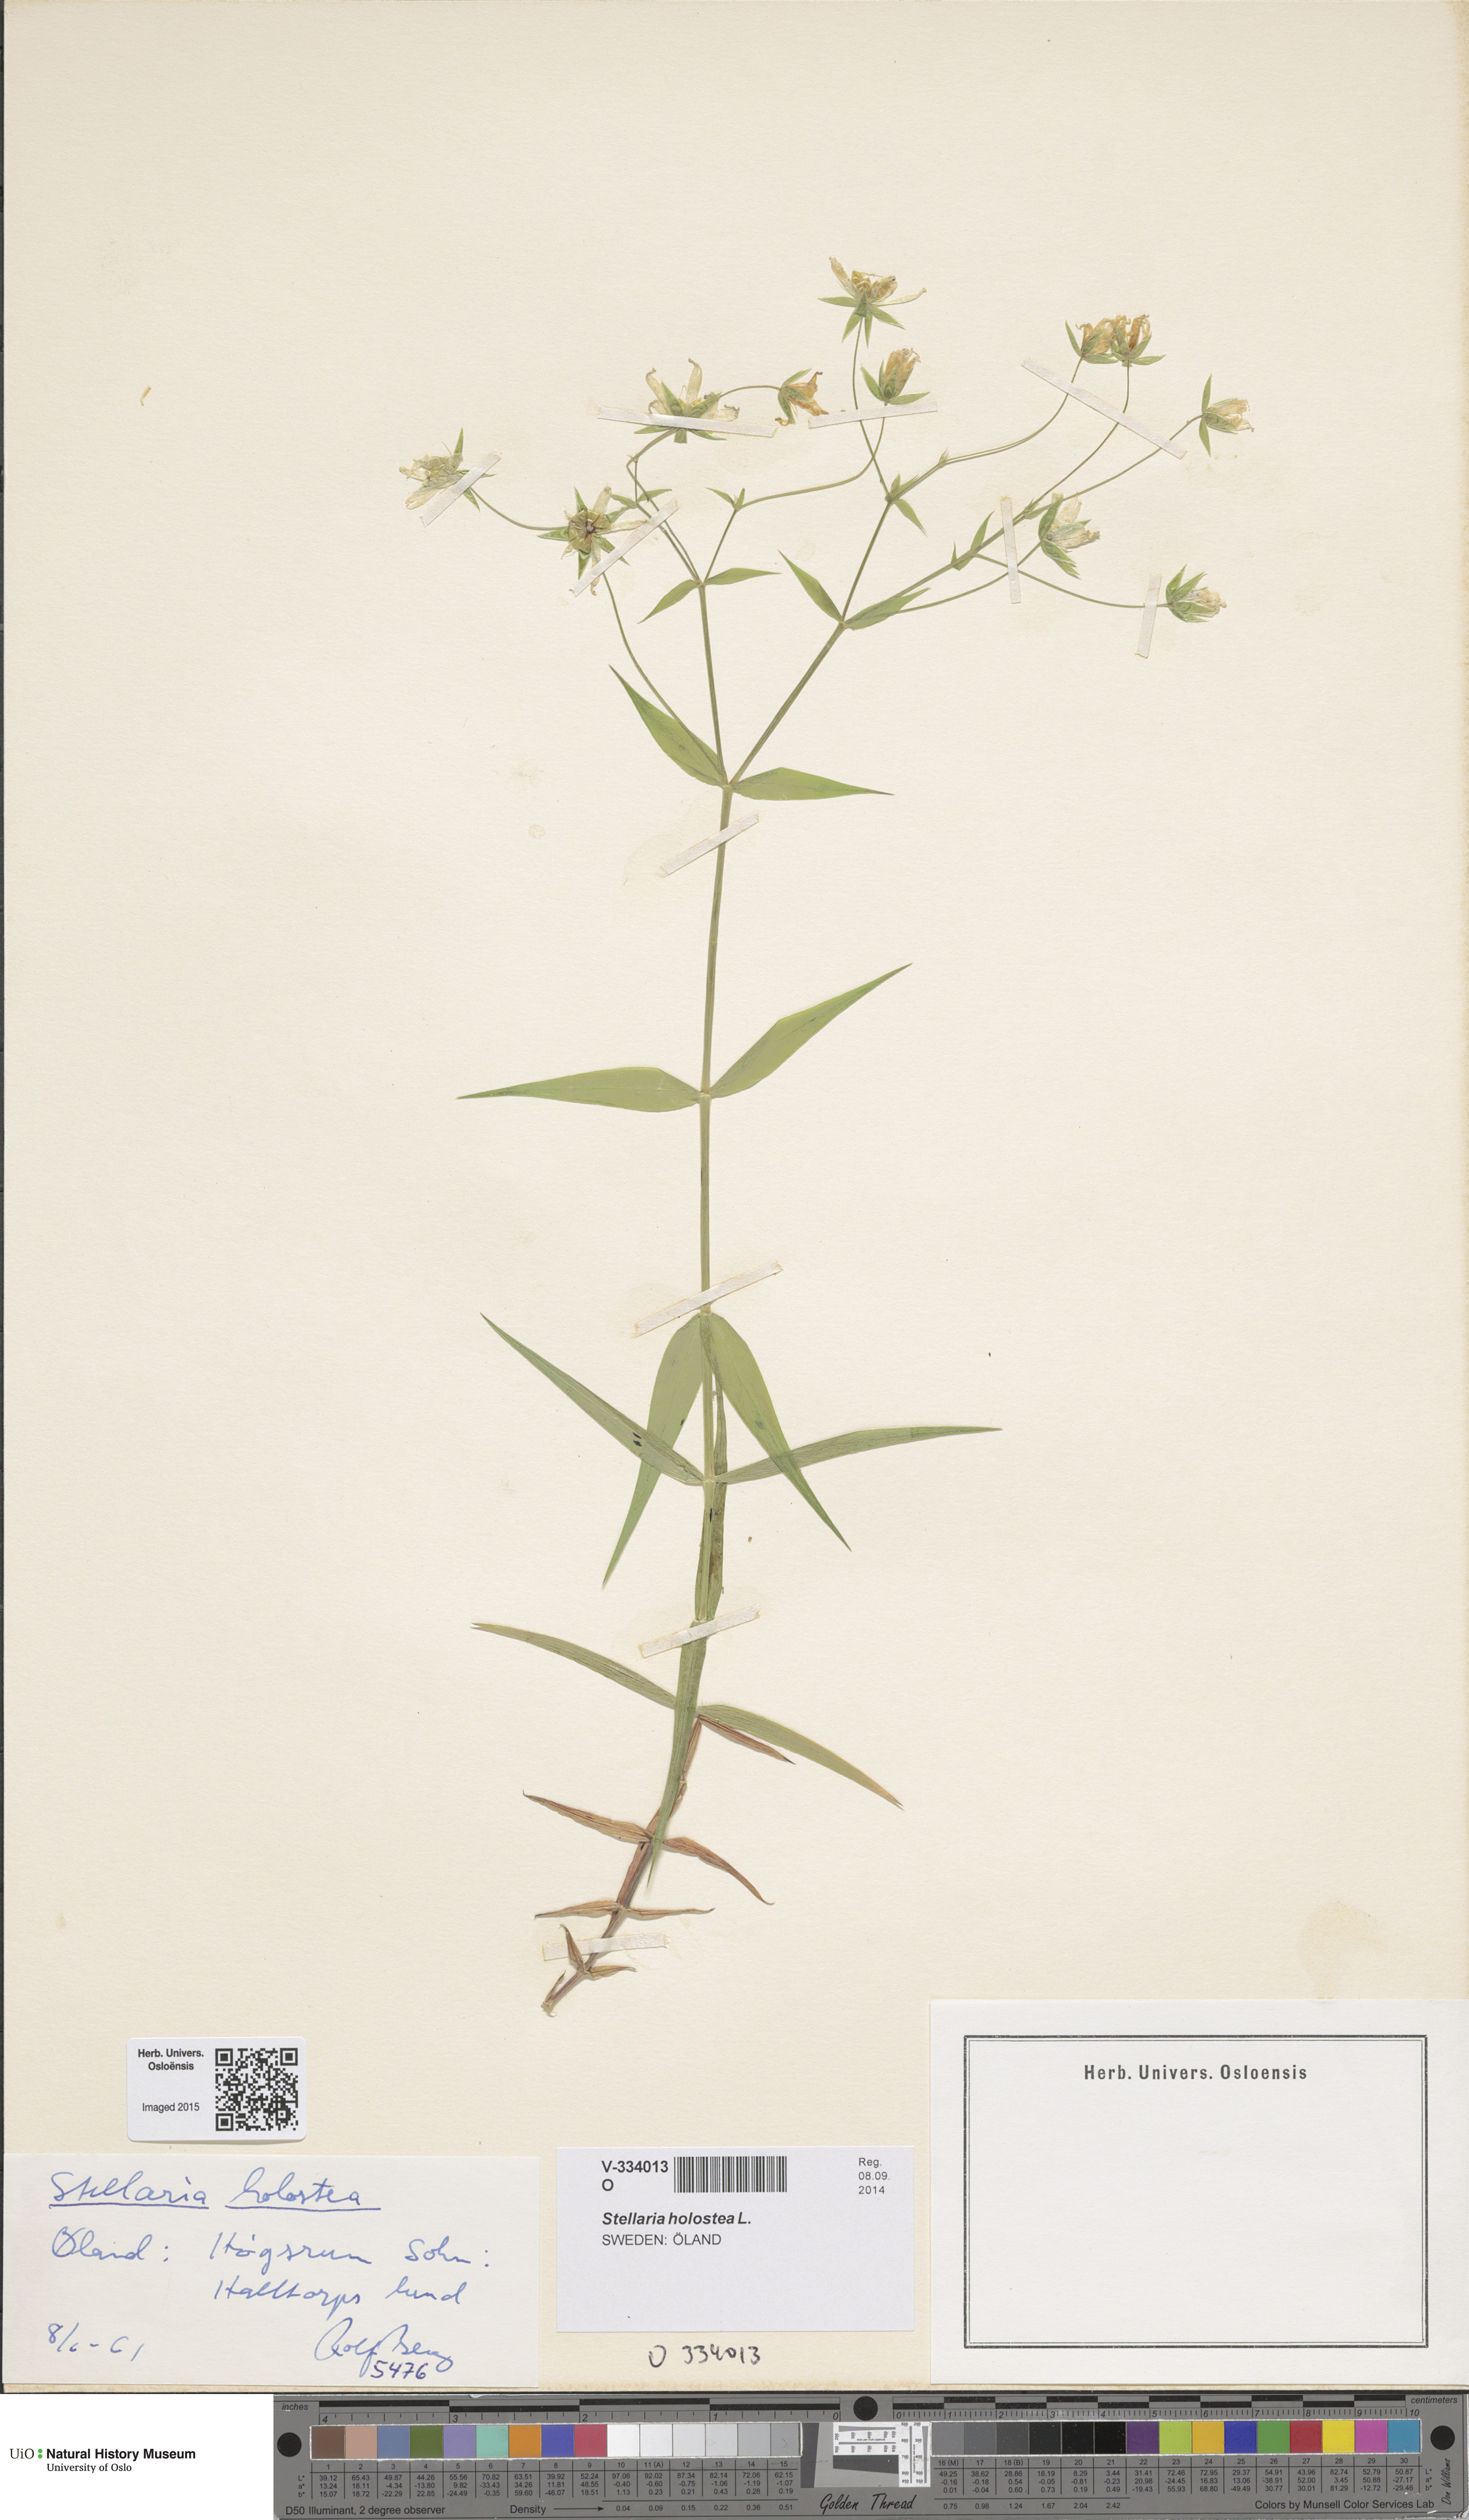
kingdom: Plantae
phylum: Tracheophyta
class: Magnoliopsida
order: Caryophyllales
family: Caryophyllaceae
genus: Rabelera
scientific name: Rabelera holostea
